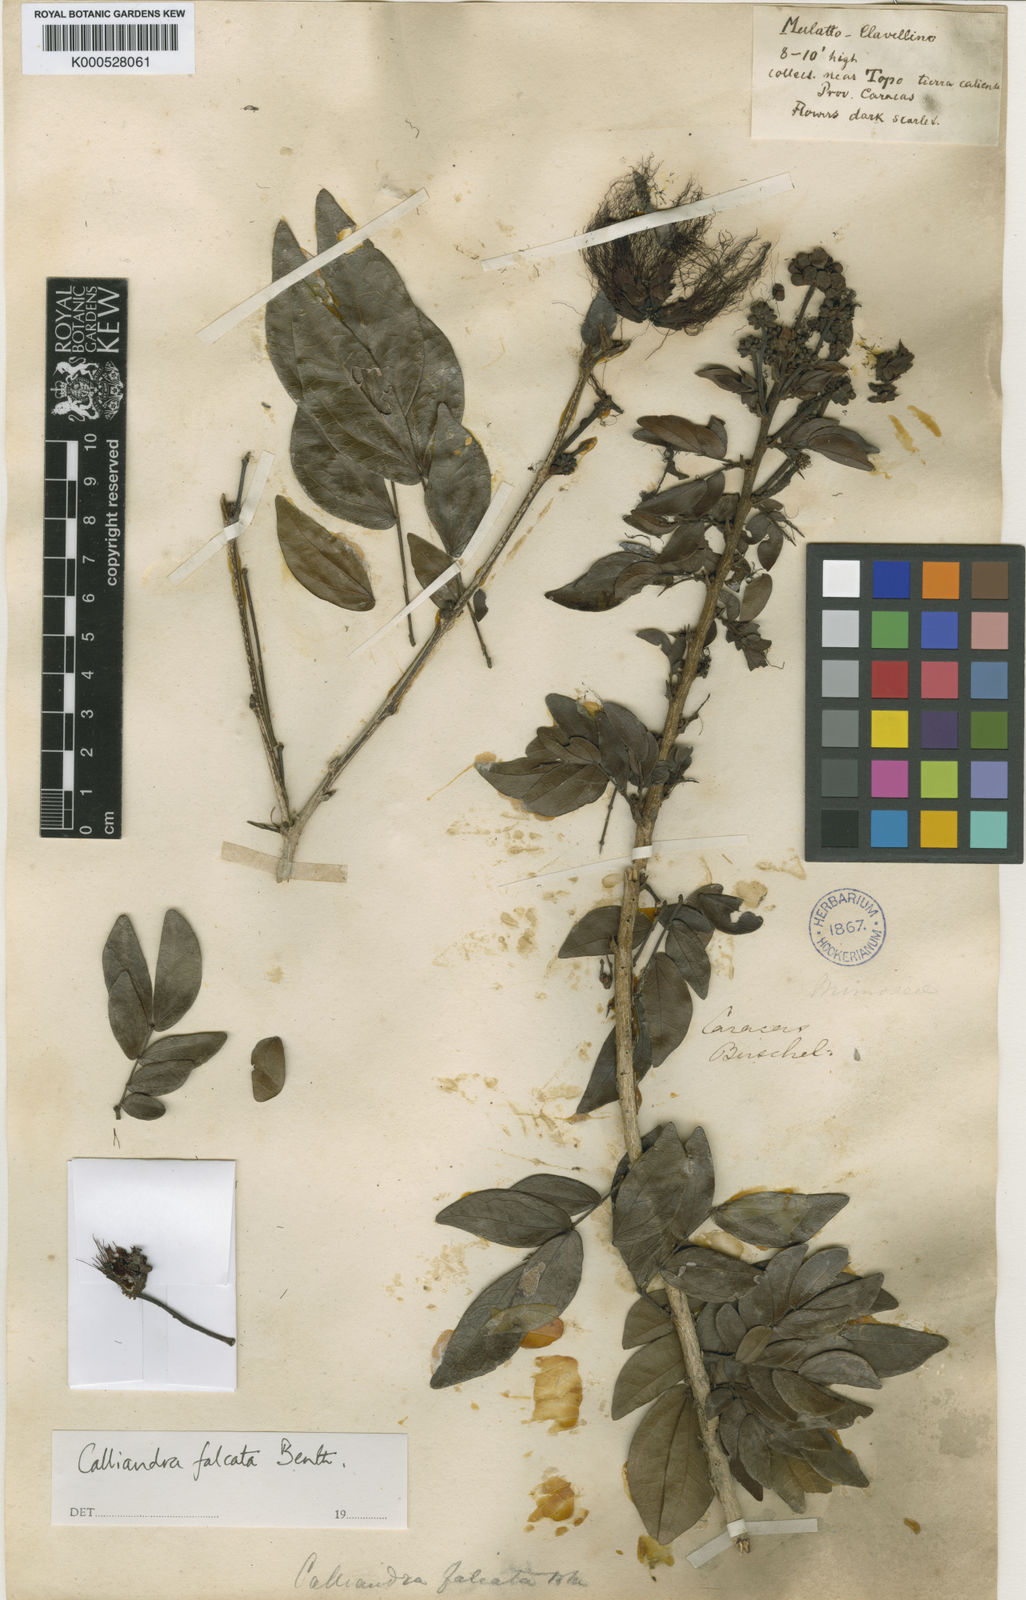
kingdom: Plantae
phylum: Tracheophyta
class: Magnoliopsida
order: Fabales
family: Fabaceae
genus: Calliandra
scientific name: Calliandra falcata
